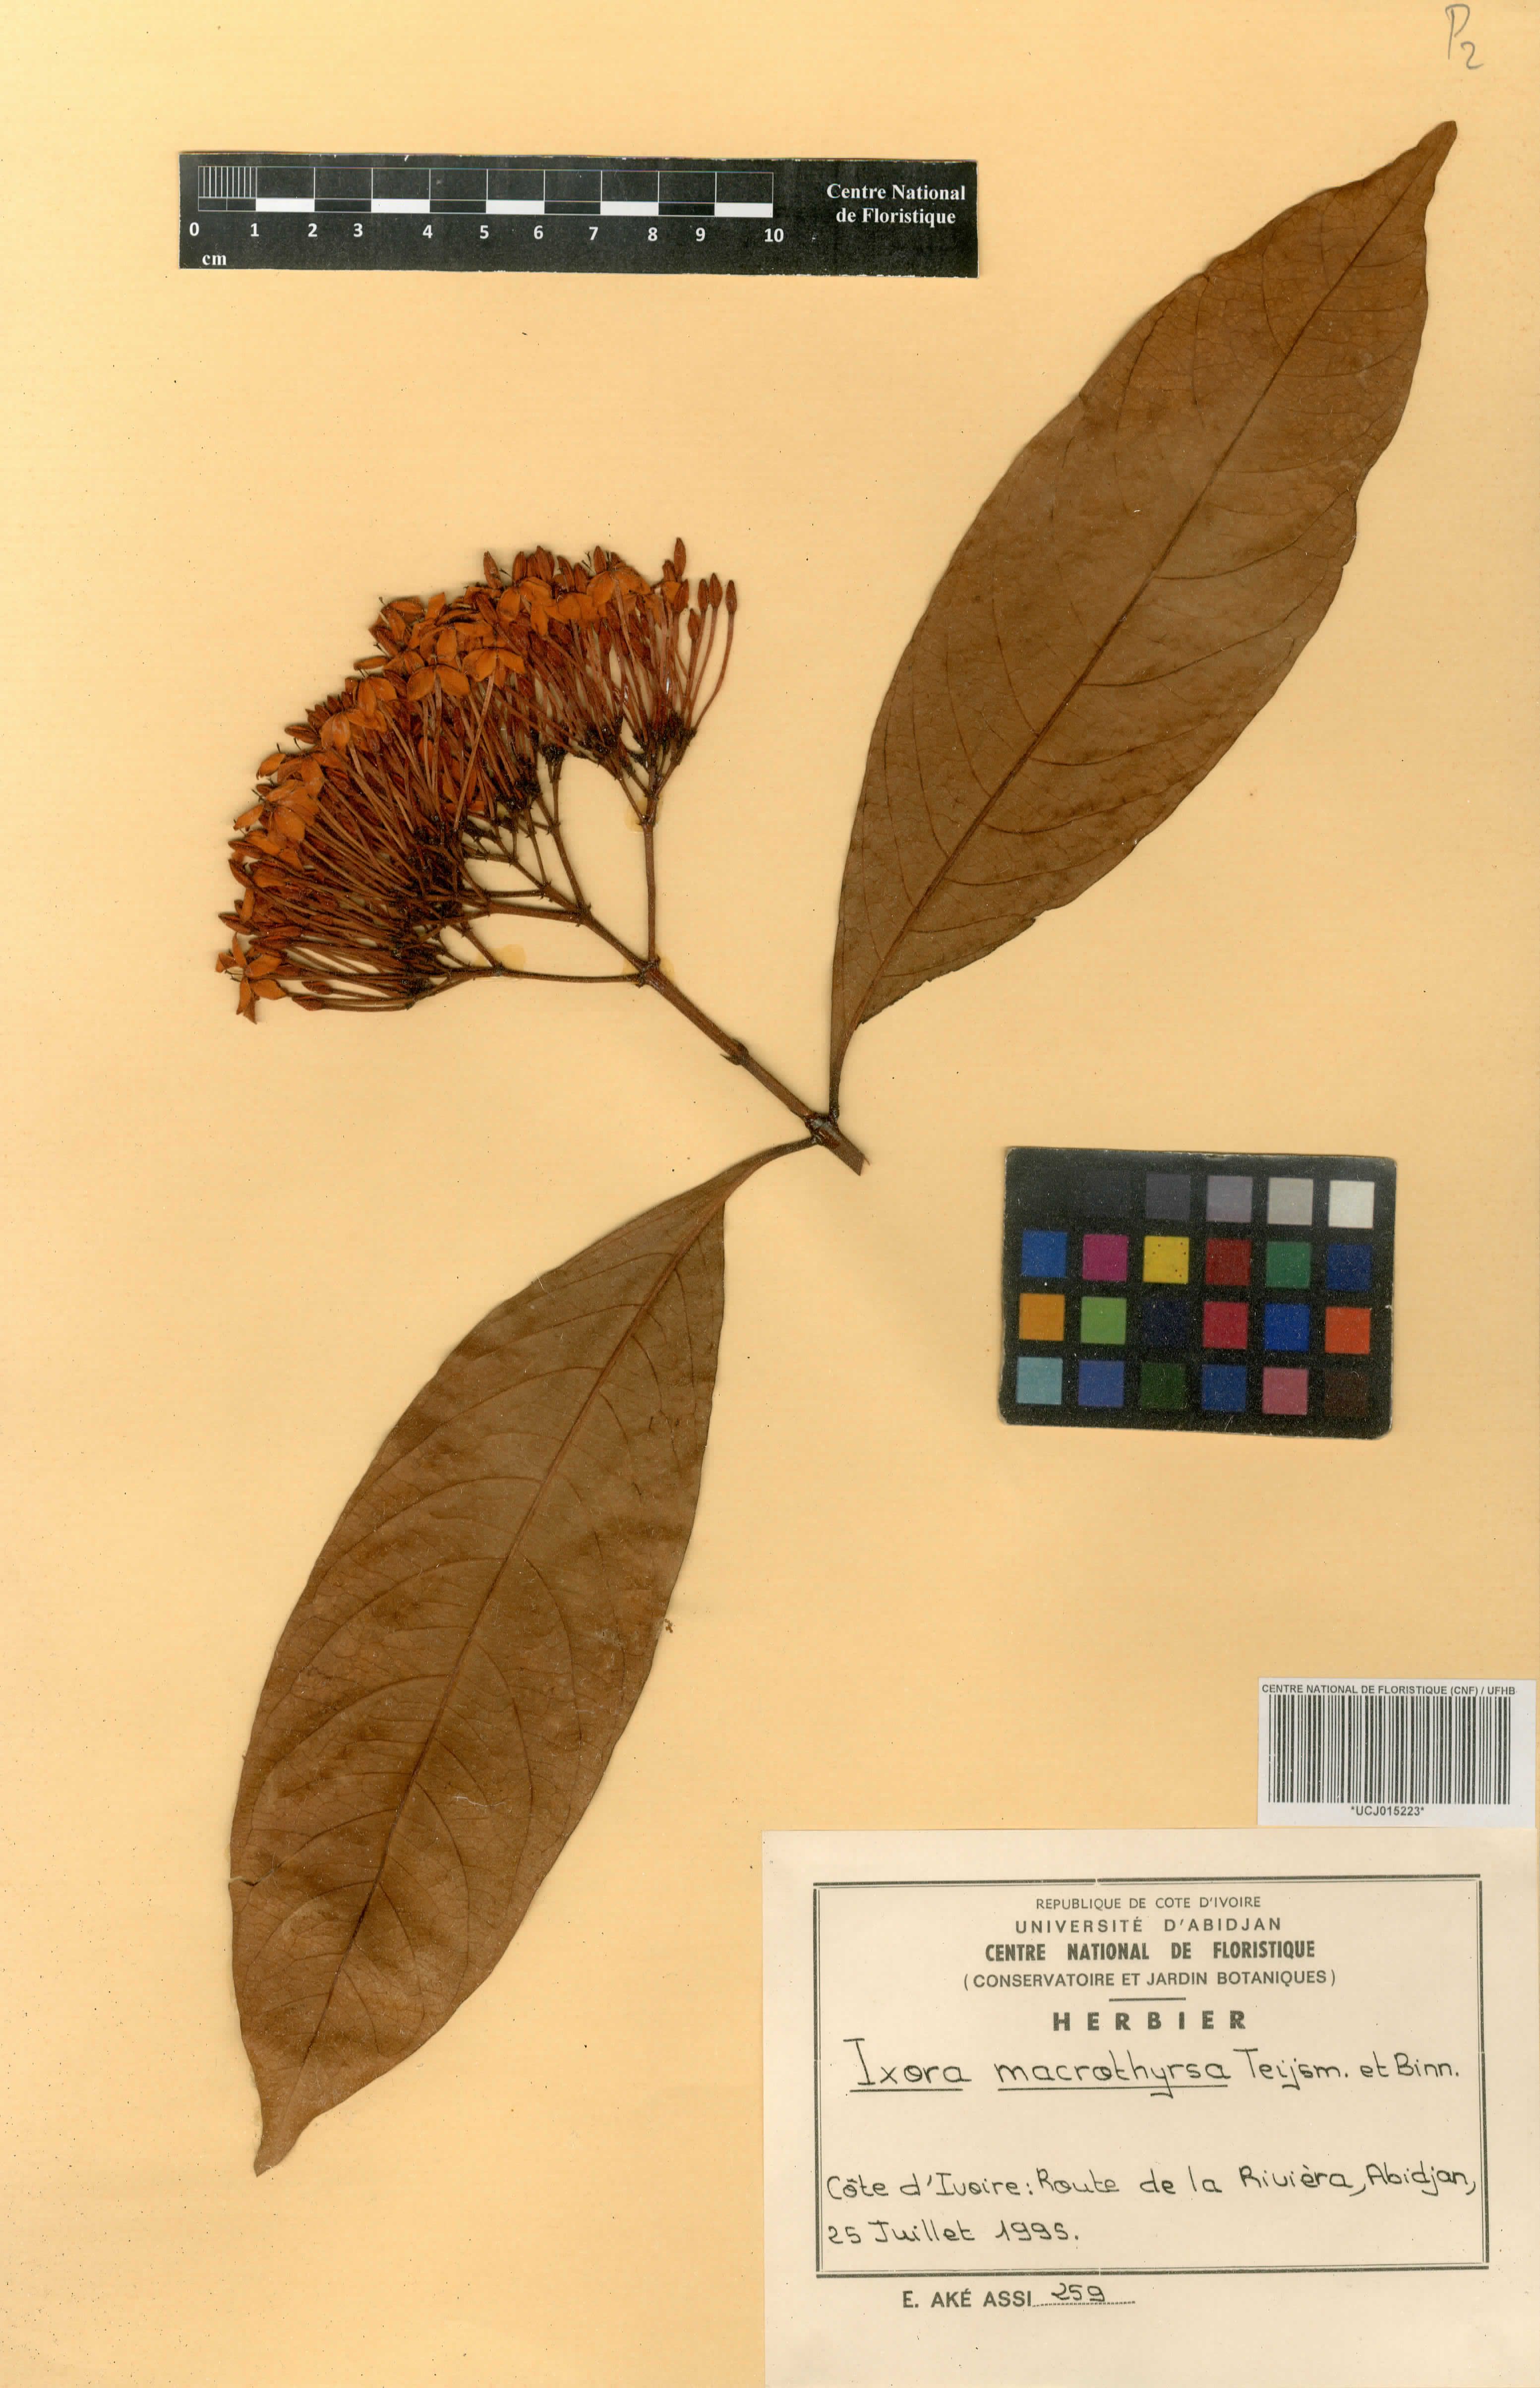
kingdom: Plantae
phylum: Tracheophyta
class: Magnoliopsida
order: Gentianales
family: Rubiaceae
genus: Ixora
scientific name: Ixora macrothyrsa
